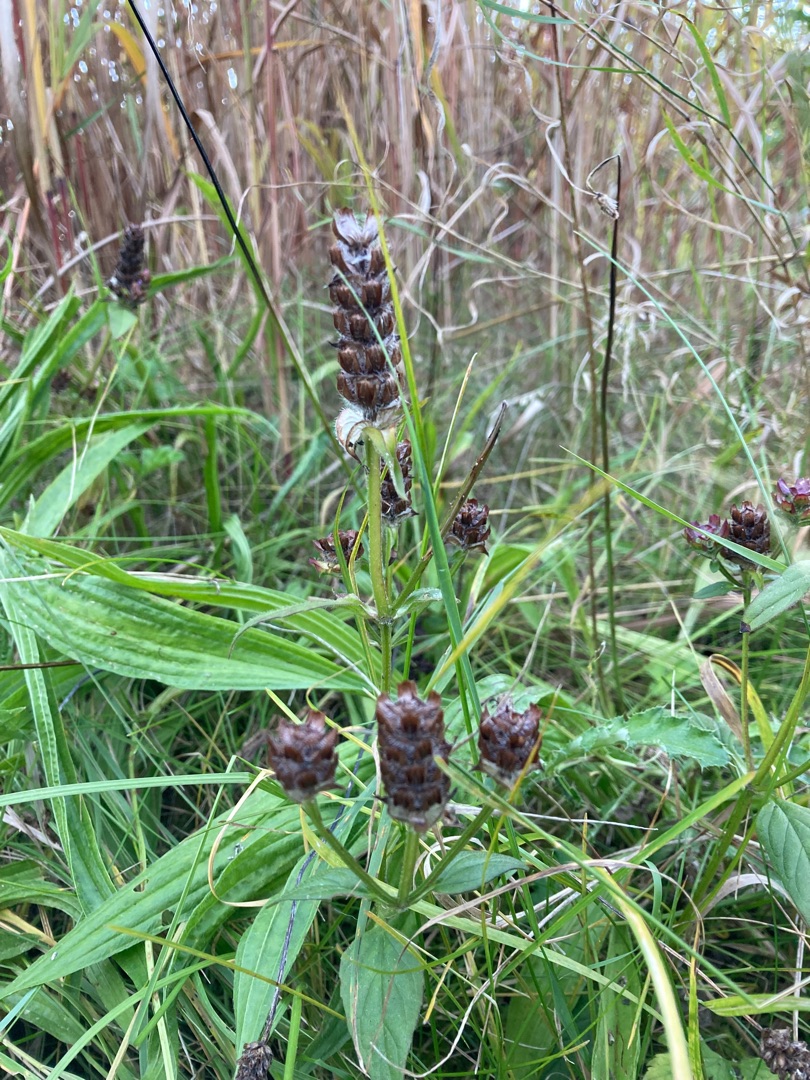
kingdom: Plantae
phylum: Tracheophyta
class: Magnoliopsida
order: Lamiales
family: Lamiaceae
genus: Prunella
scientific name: Prunella vulgaris
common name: Almindelig brunelle
